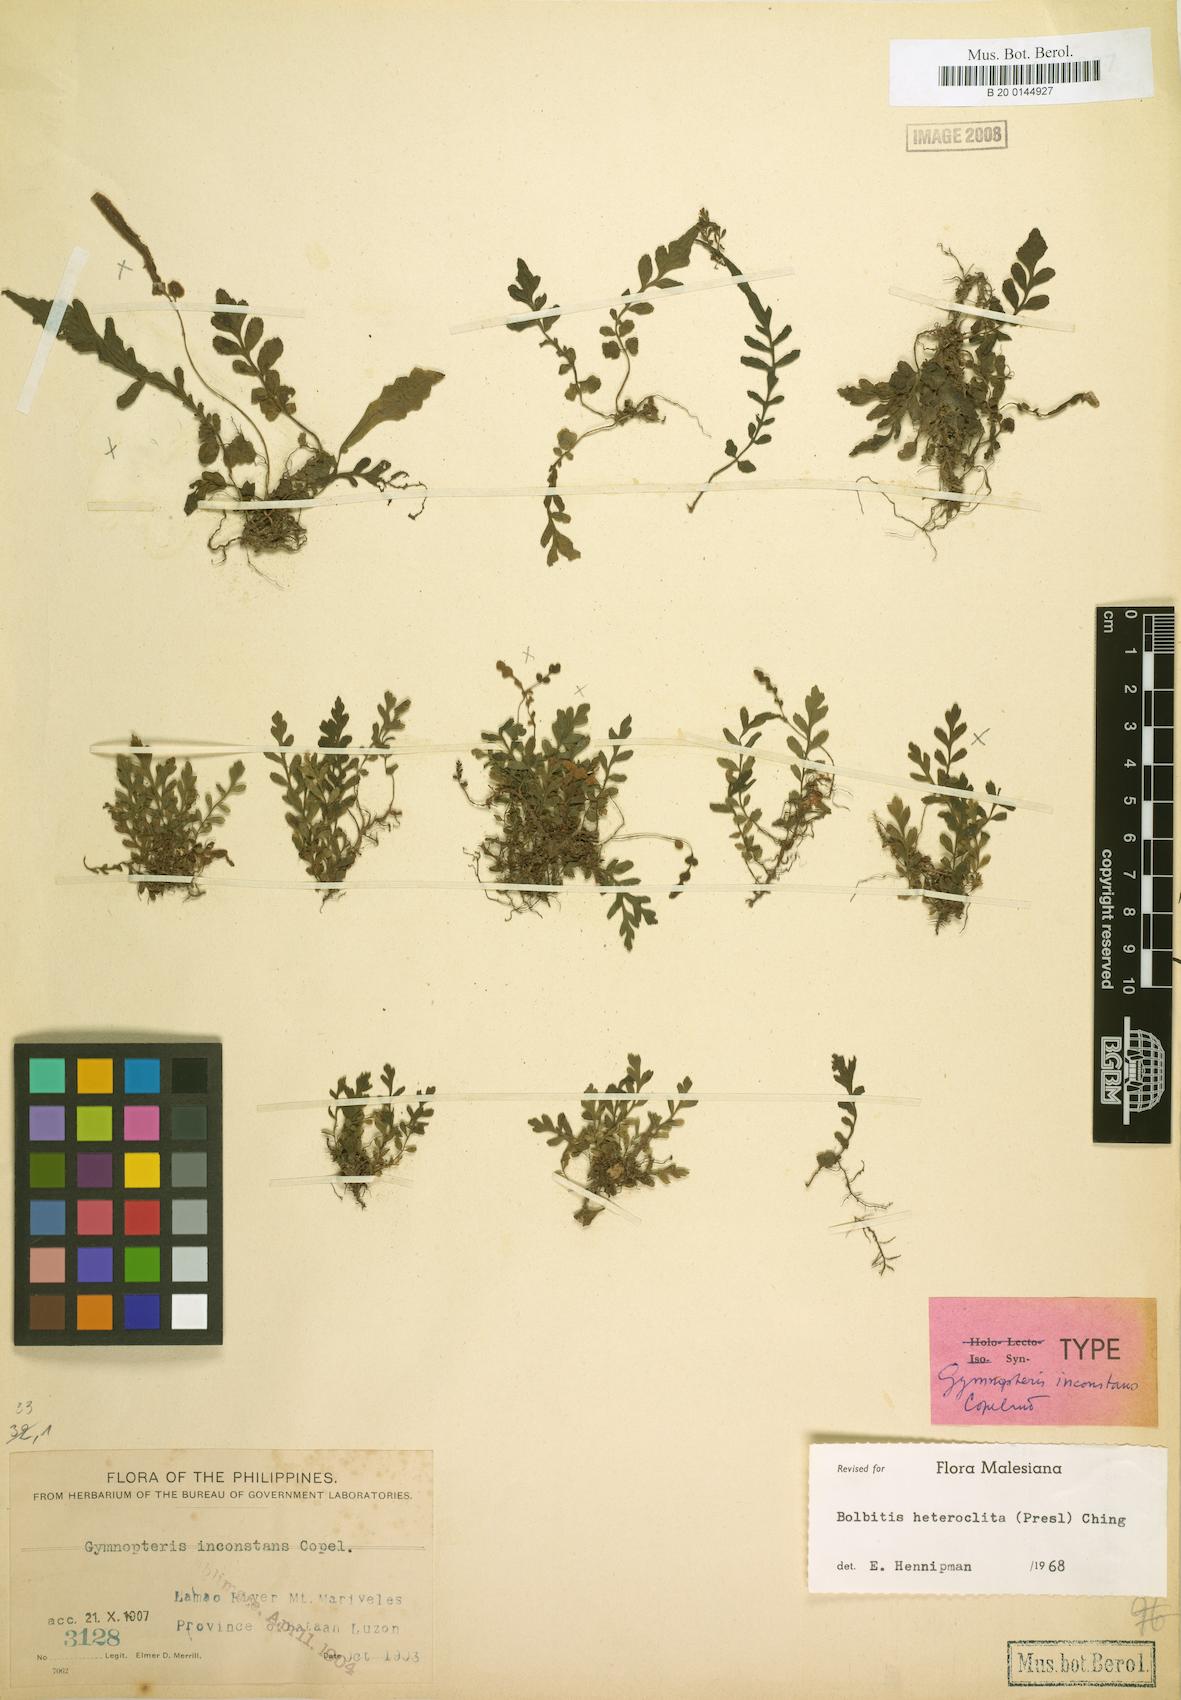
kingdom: Plantae
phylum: Tracheophyta
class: Polypodiopsida
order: Polypodiales
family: Dryopteridaceae
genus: Bolbitis
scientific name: Bolbitis heteroclita
